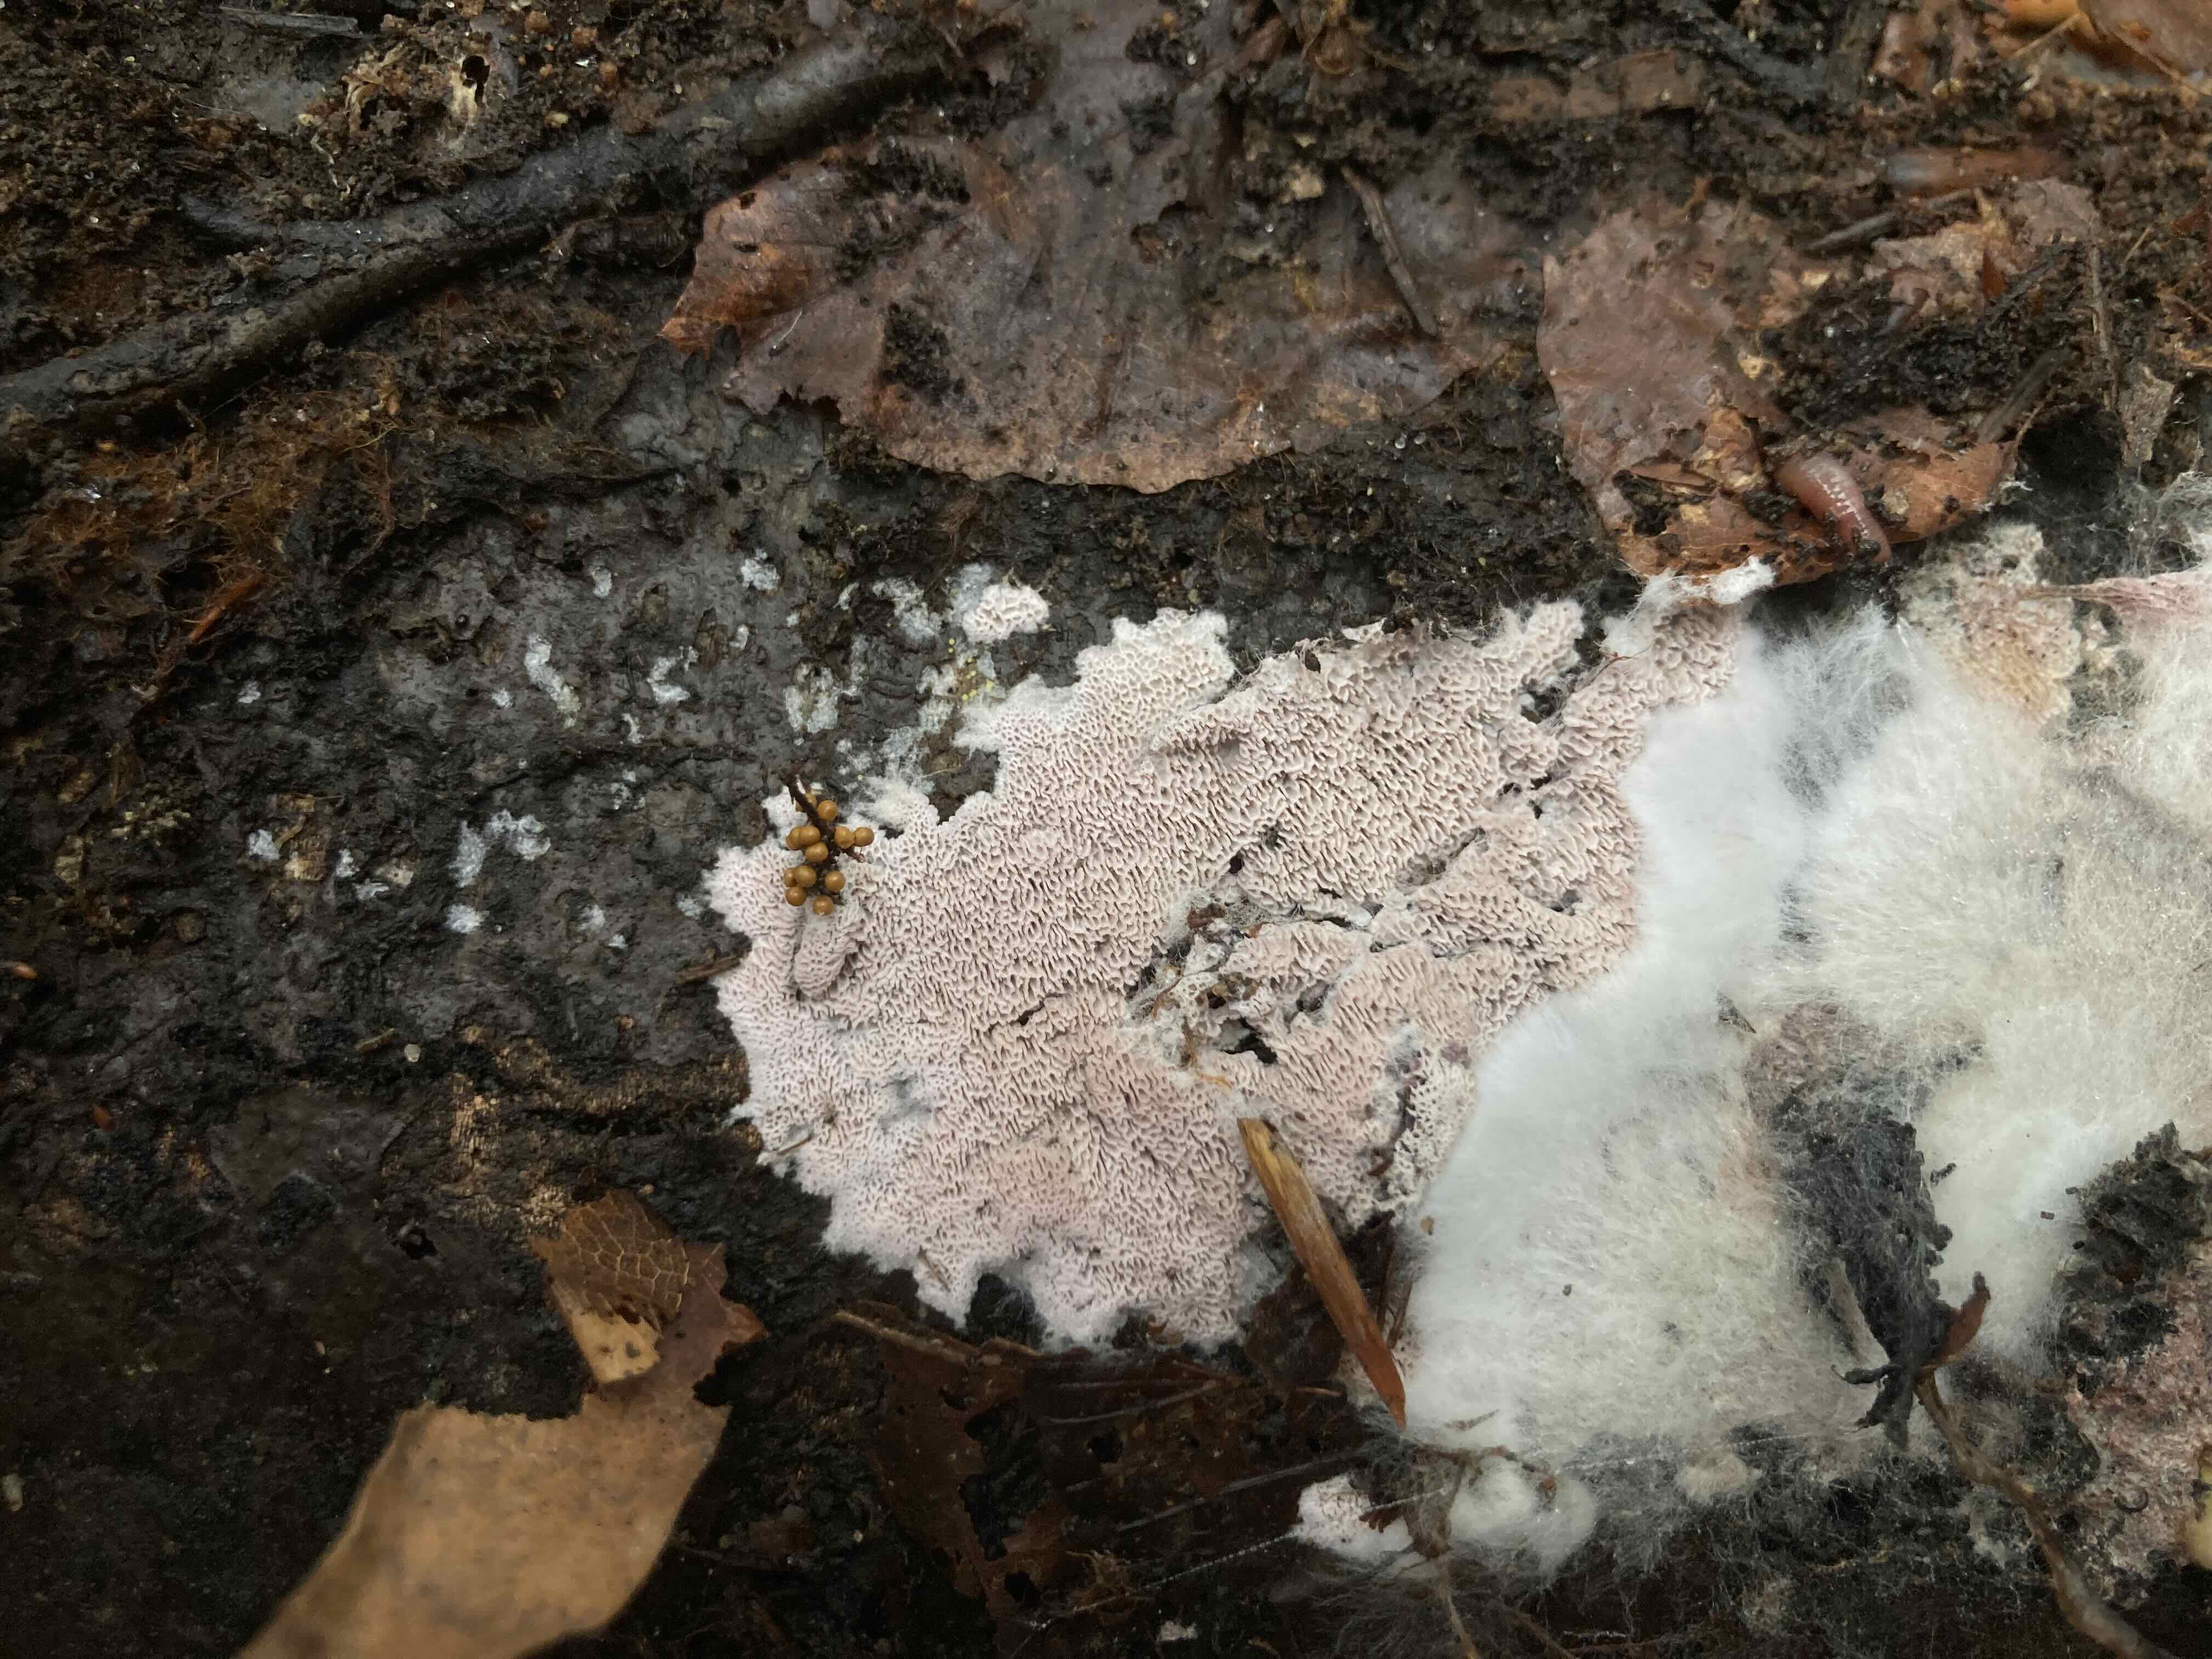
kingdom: Fungi
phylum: Basidiomycota
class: Agaricomycetes
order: Polyporales
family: Irpicaceae
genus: Ceriporia
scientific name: Ceriporia excelsa
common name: lilla voksporesvamp
